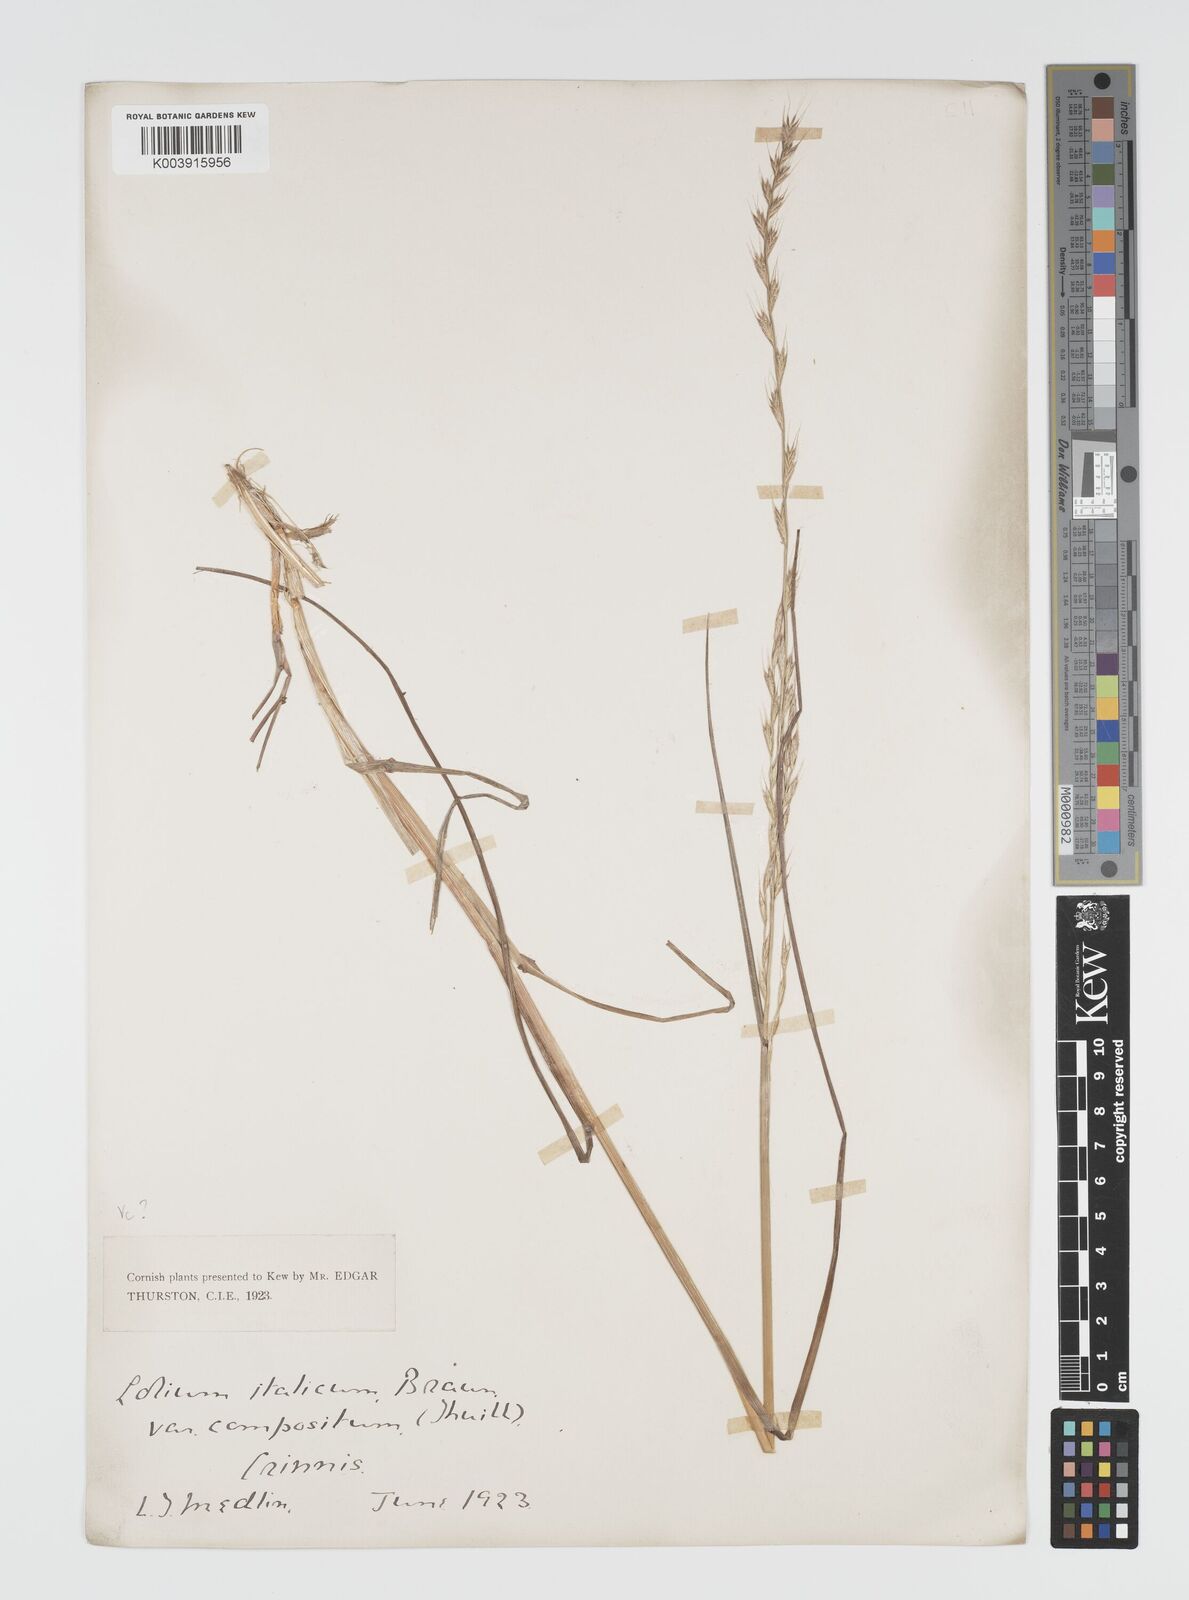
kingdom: Plantae
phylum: Tracheophyta
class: Liliopsida
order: Poales
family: Poaceae
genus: Lolium
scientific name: Lolium multiflorum
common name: Annual ryegrass
